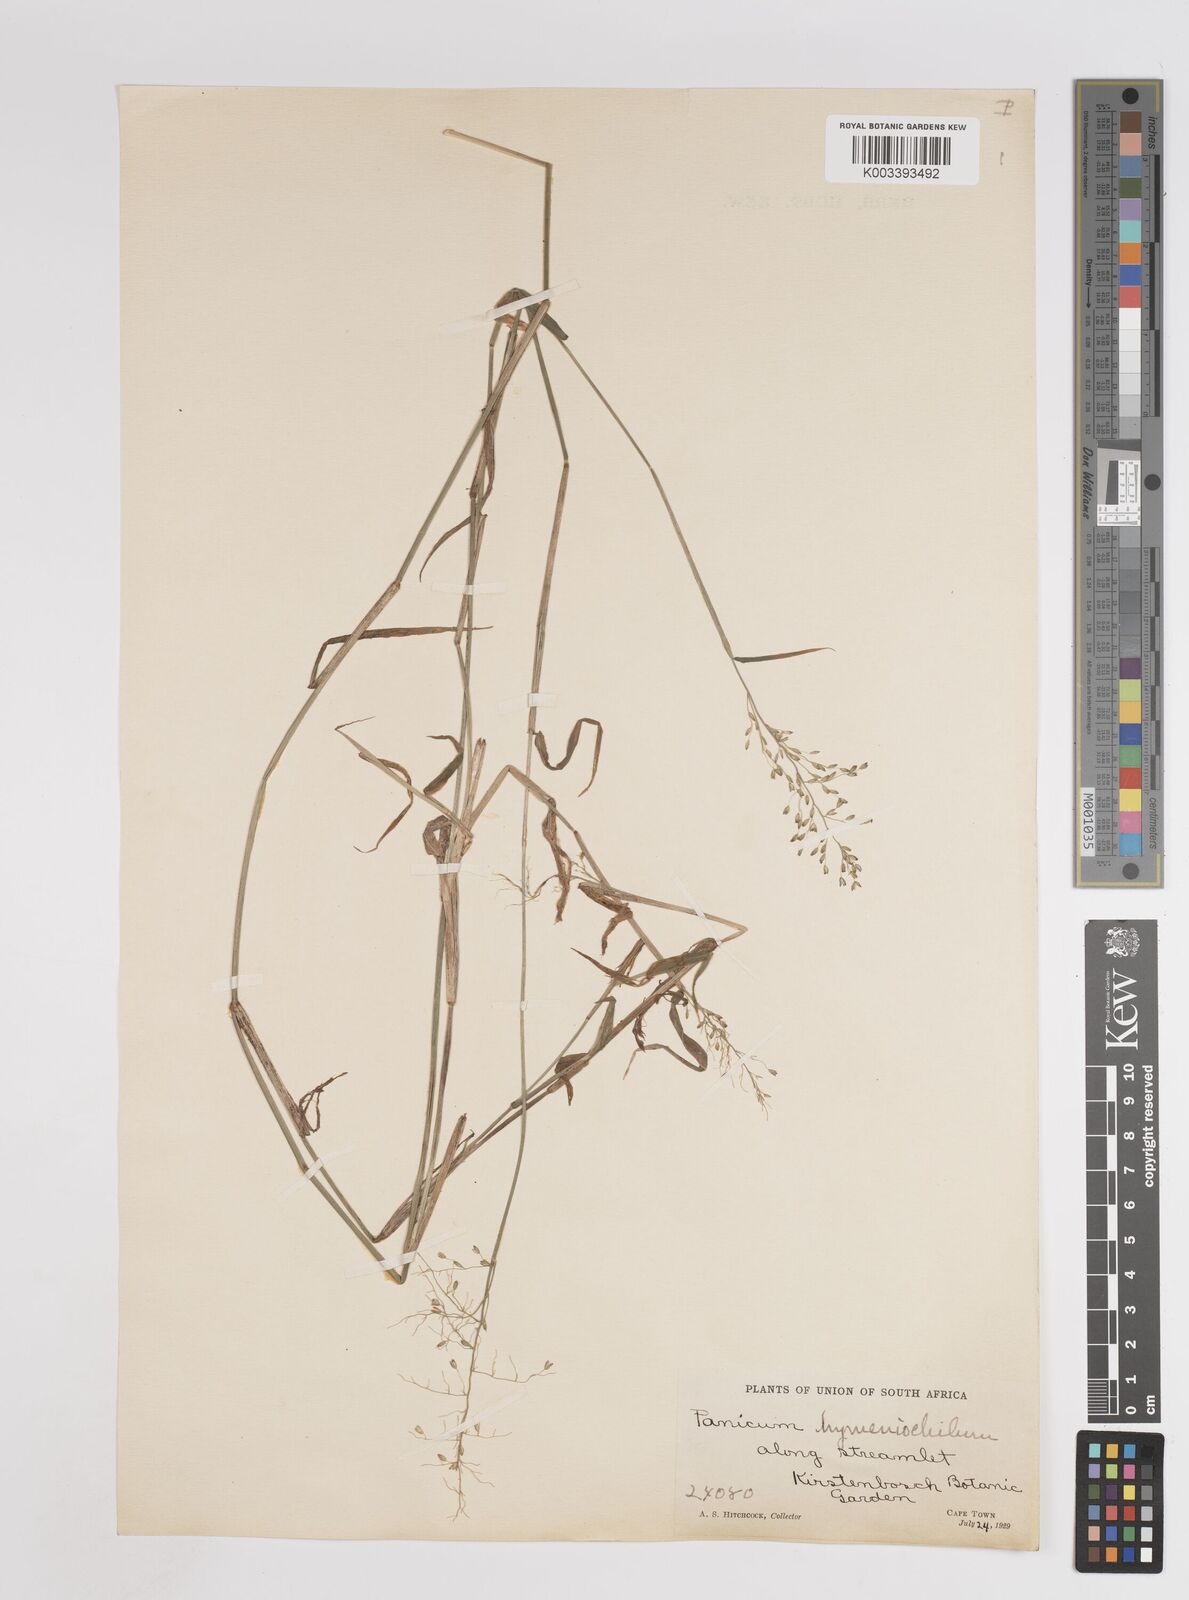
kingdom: Plantae
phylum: Tracheophyta
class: Liliopsida
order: Poales
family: Poaceae
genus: Adenochloa
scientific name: Adenochloa hymeniochila
